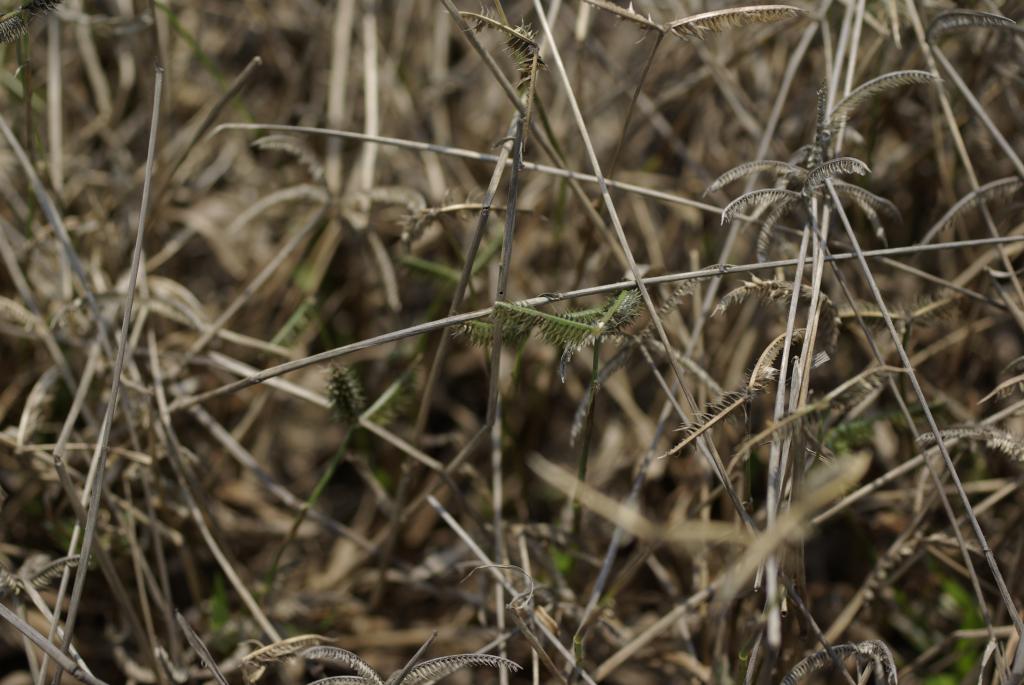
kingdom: Plantae
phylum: Tracheophyta
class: Liliopsida
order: Poales
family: Poaceae
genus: Dactyloctenium
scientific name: Dactyloctenium aegyptium
